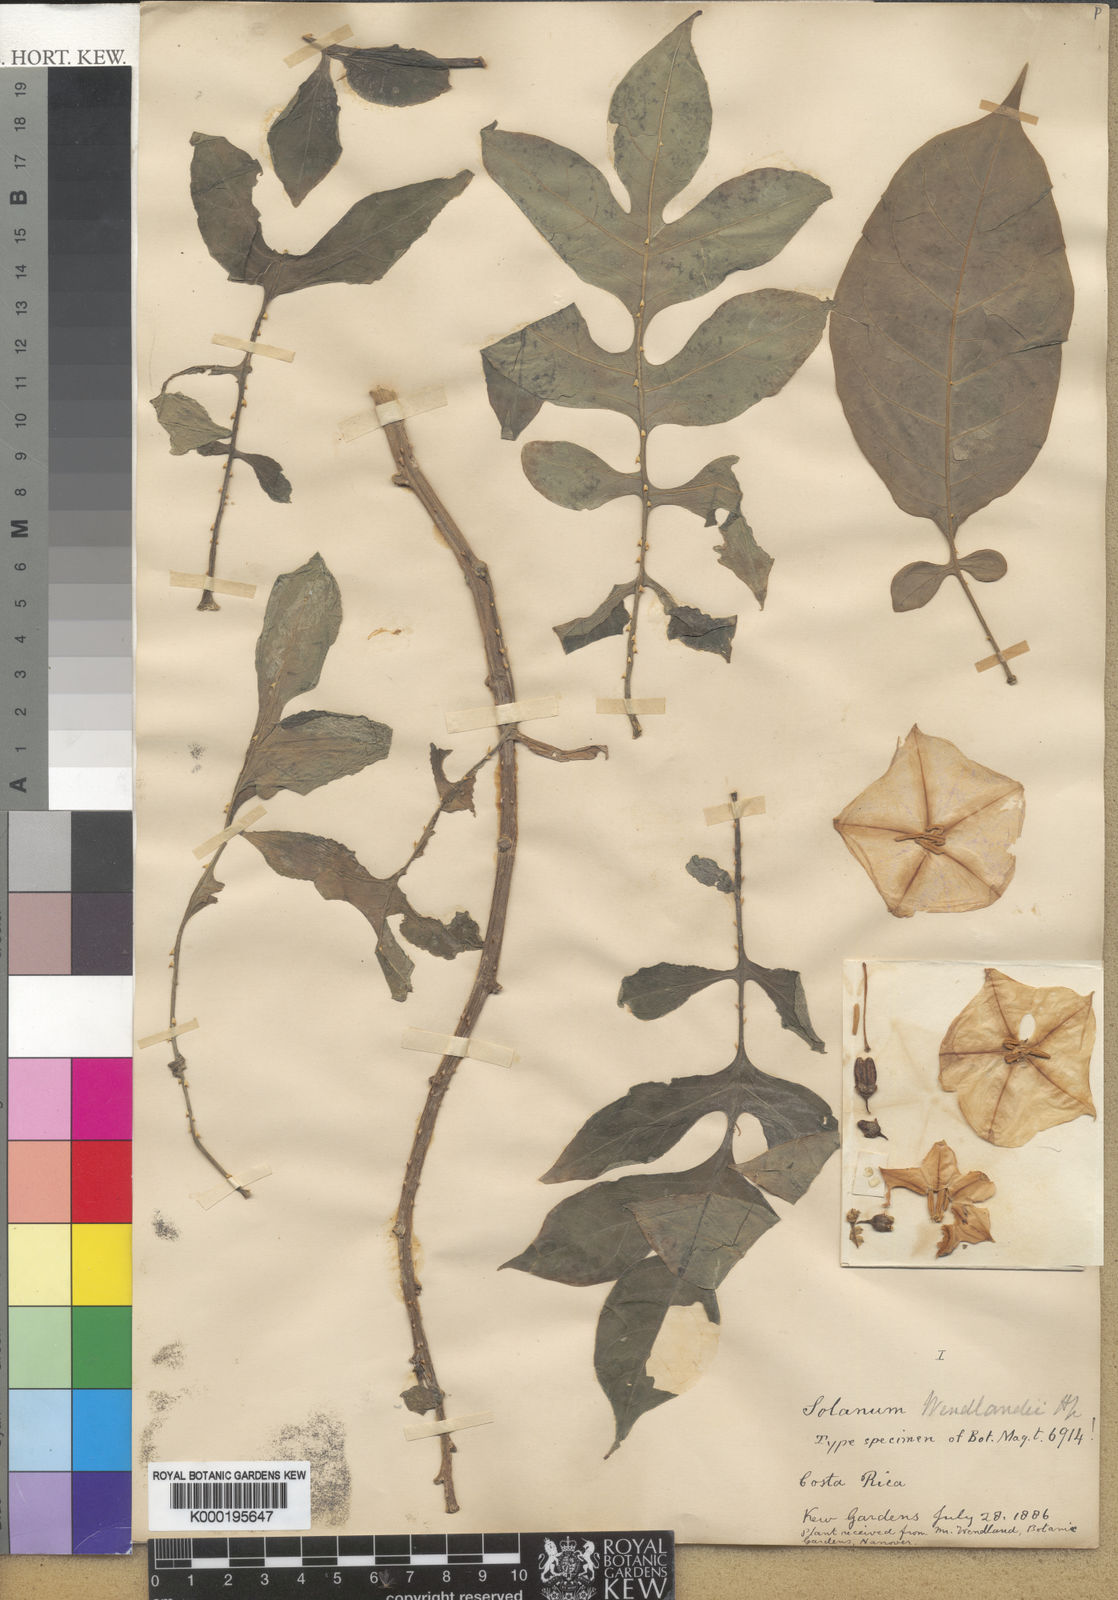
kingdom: Plantae
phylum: Tracheophyta
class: Magnoliopsida
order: Solanales
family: Solanaceae
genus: Solanum
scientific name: Solanum wendlandii
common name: Costa rican nightshade
